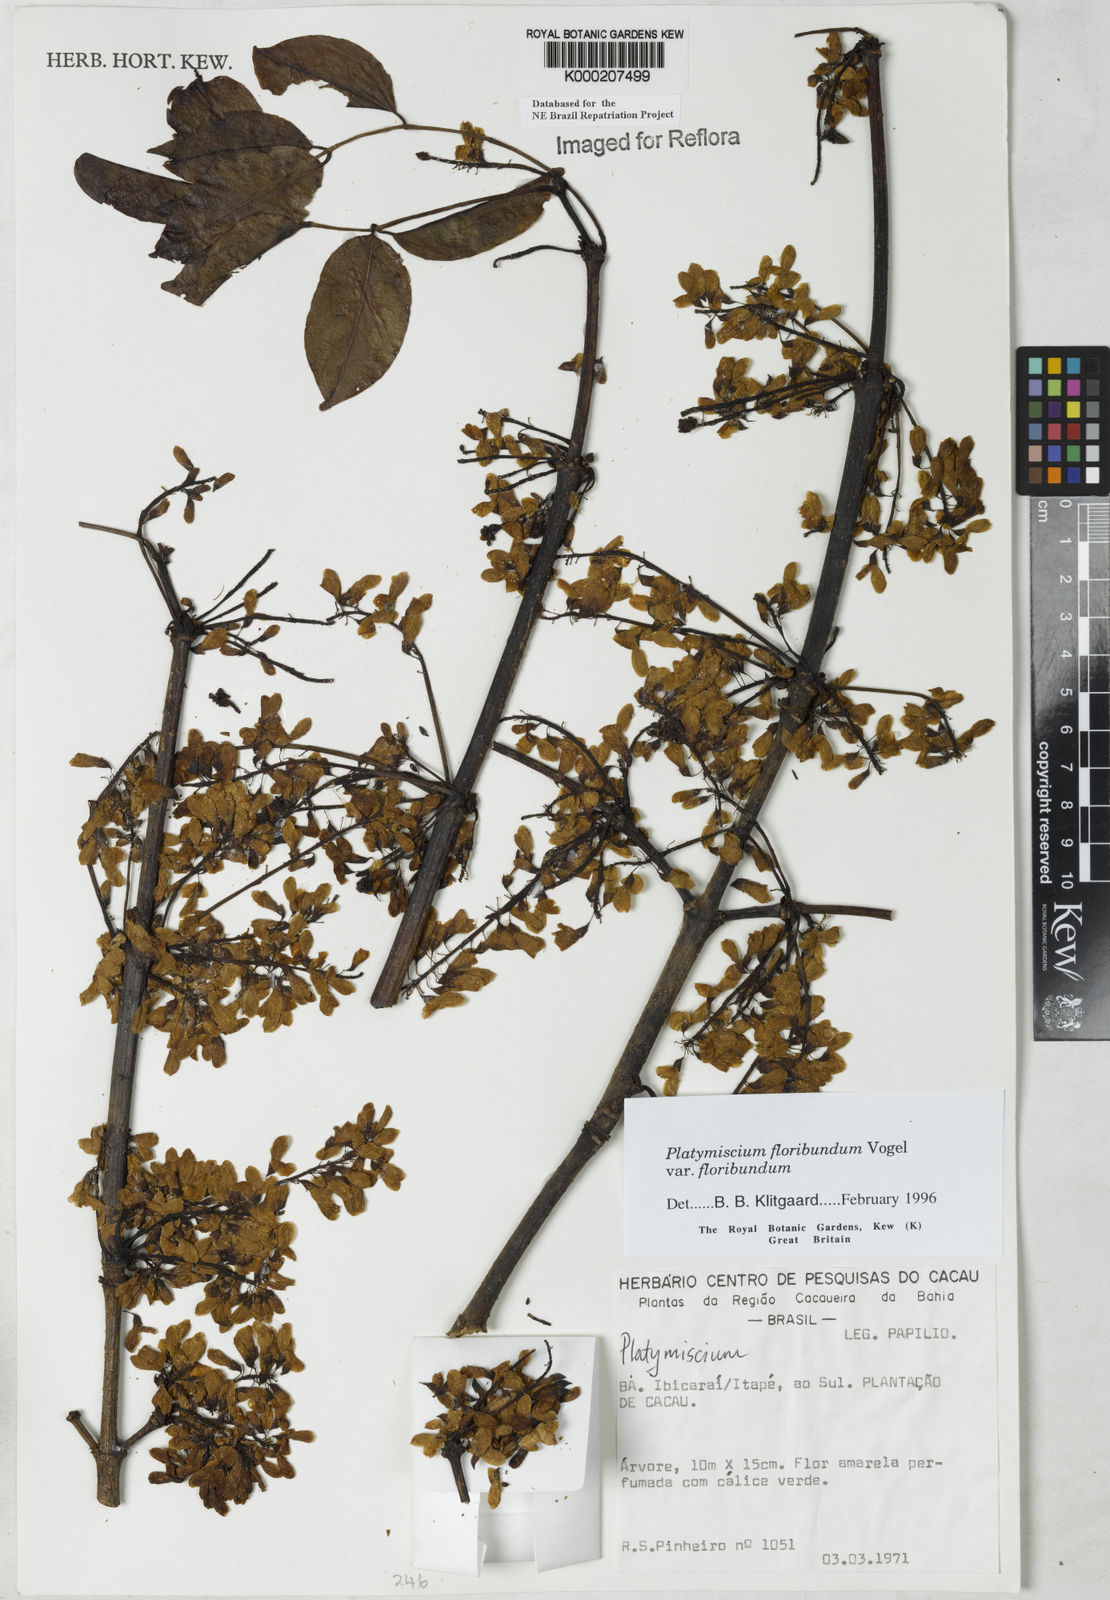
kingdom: Plantae
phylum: Tracheophyta
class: Magnoliopsida
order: Fabales
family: Fabaceae
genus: Platymiscium
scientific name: Platymiscium floribundum
